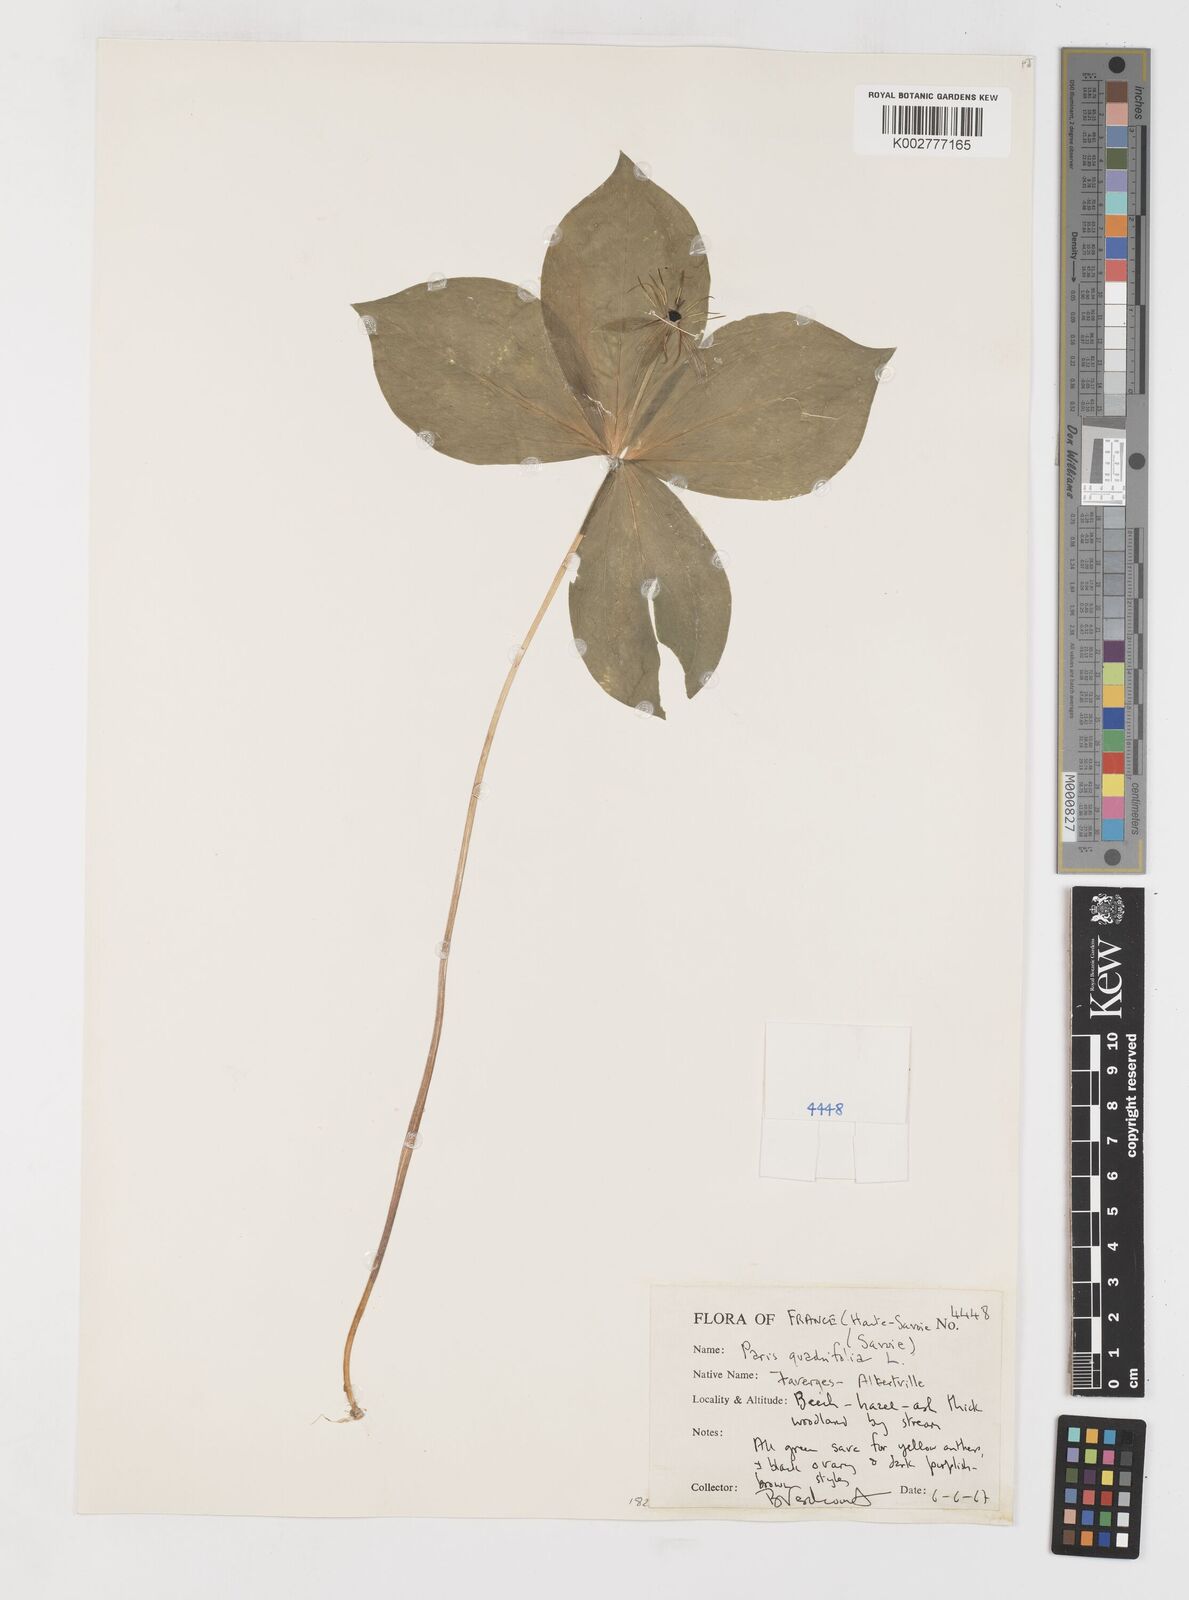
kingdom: Plantae
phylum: Tracheophyta
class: Liliopsida
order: Liliales
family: Melanthiaceae
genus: Paris
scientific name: Paris quadrifolia
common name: Herb-paris
